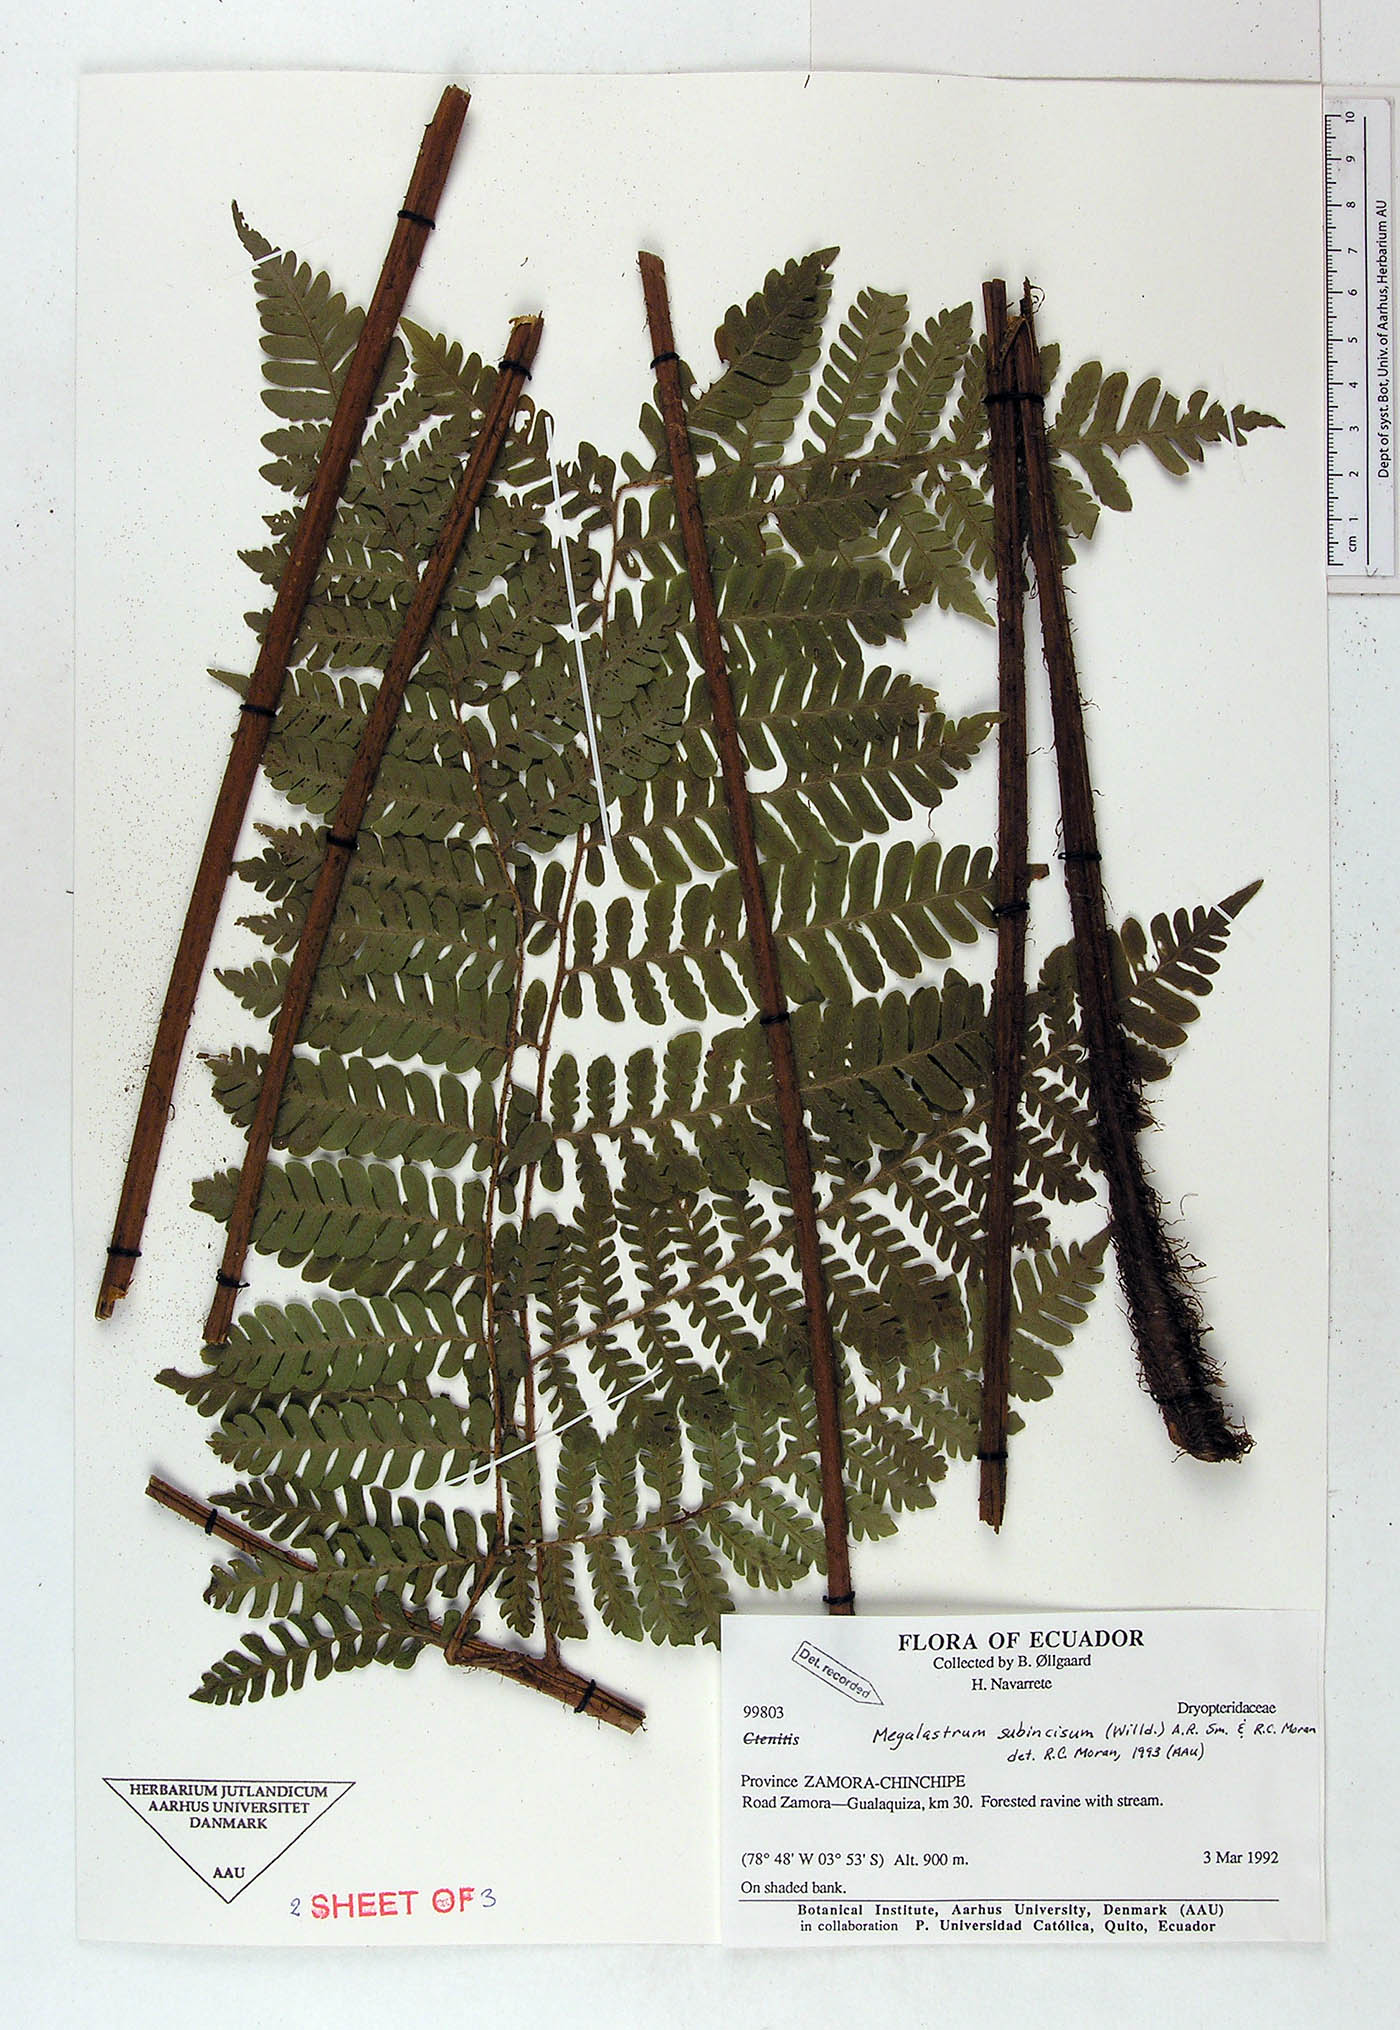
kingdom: Plantae
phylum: Tracheophyta
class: Polypodiopsida
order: Polypodiales
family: Dryopteridaceae
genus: Megalastrum
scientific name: Megalastrum miscellum
